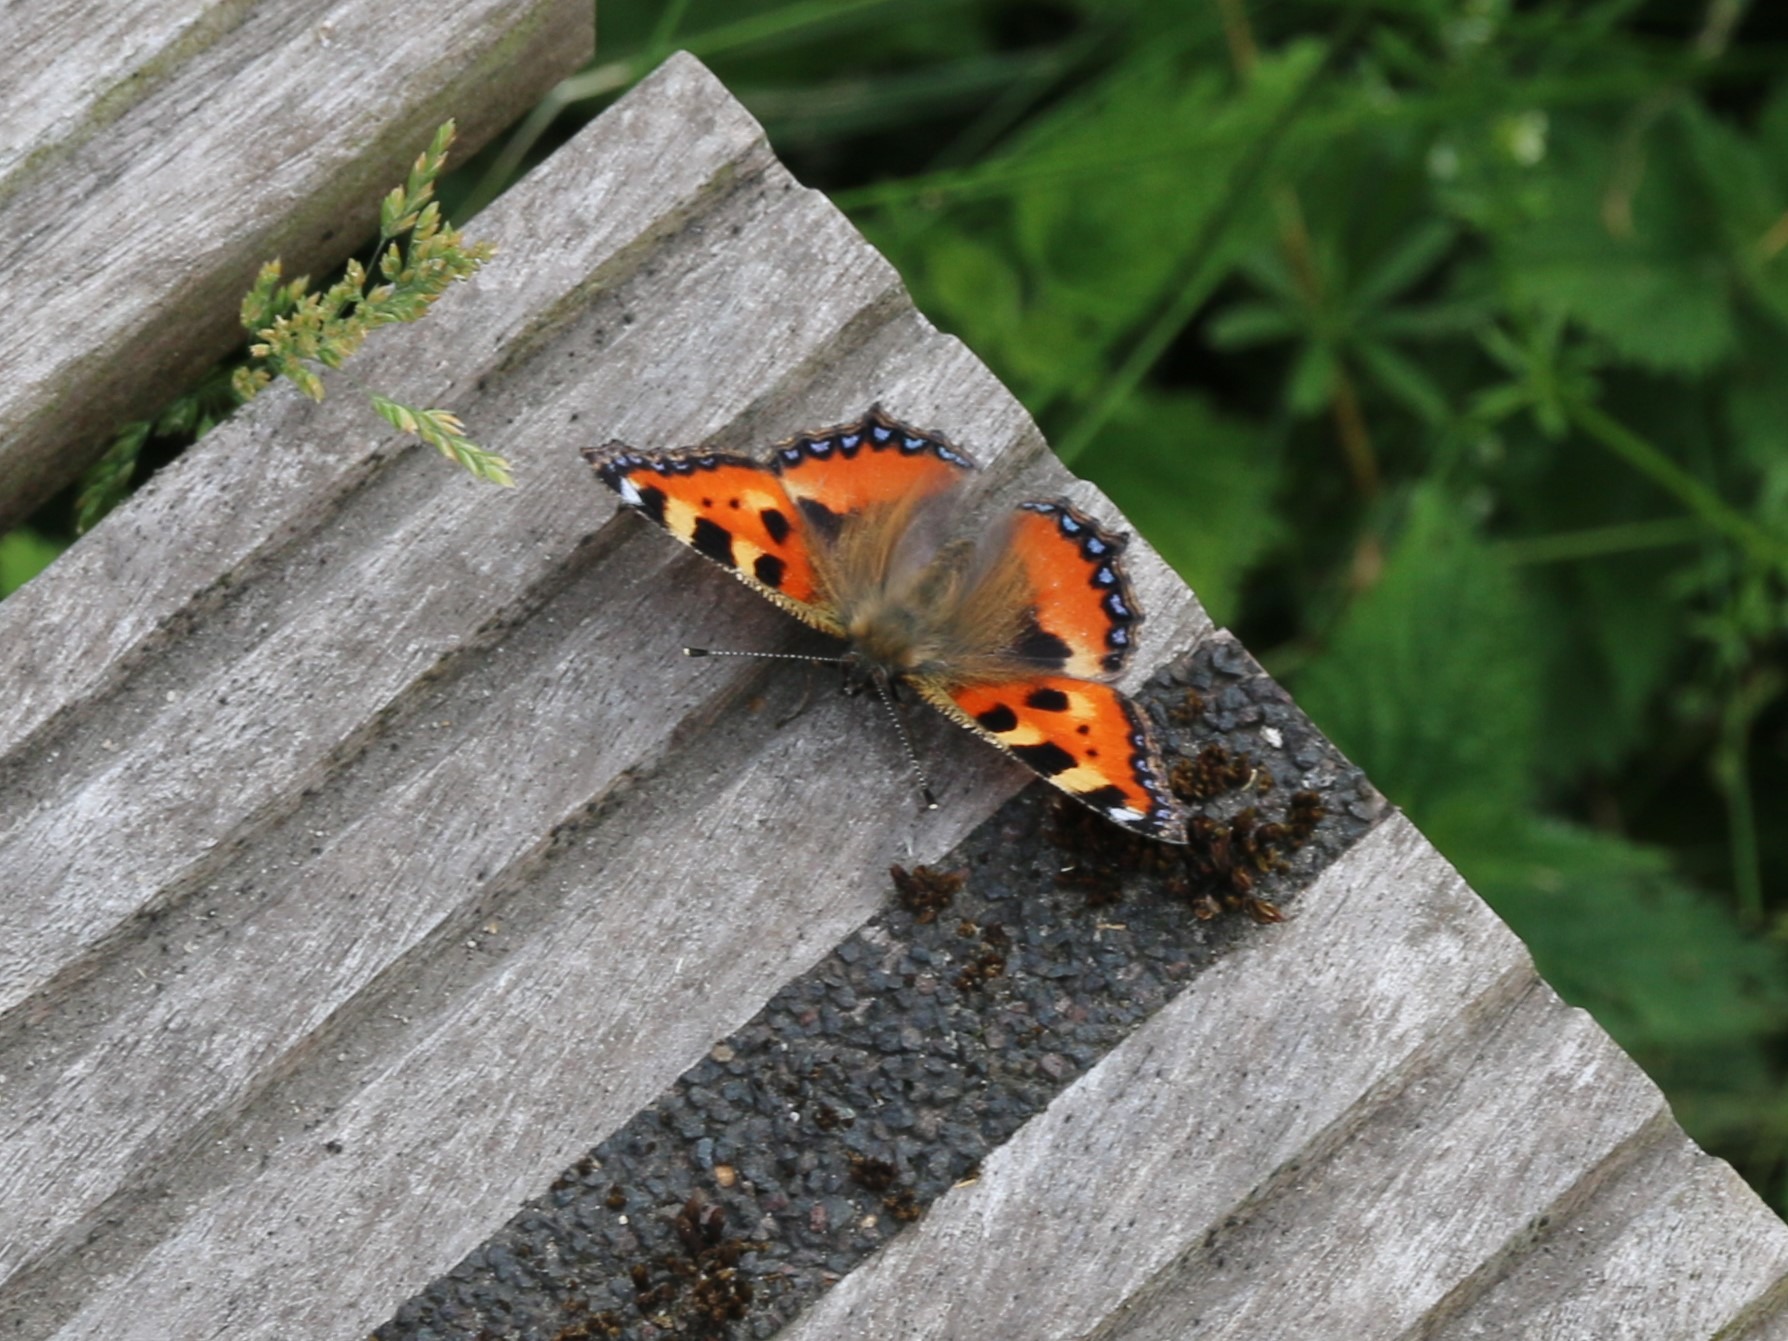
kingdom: Animalia
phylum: Arthropoda
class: Insecta
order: Lepidoptera
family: Nymphalidae
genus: Aglais
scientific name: Aglais urticae
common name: Nældens takvinge
